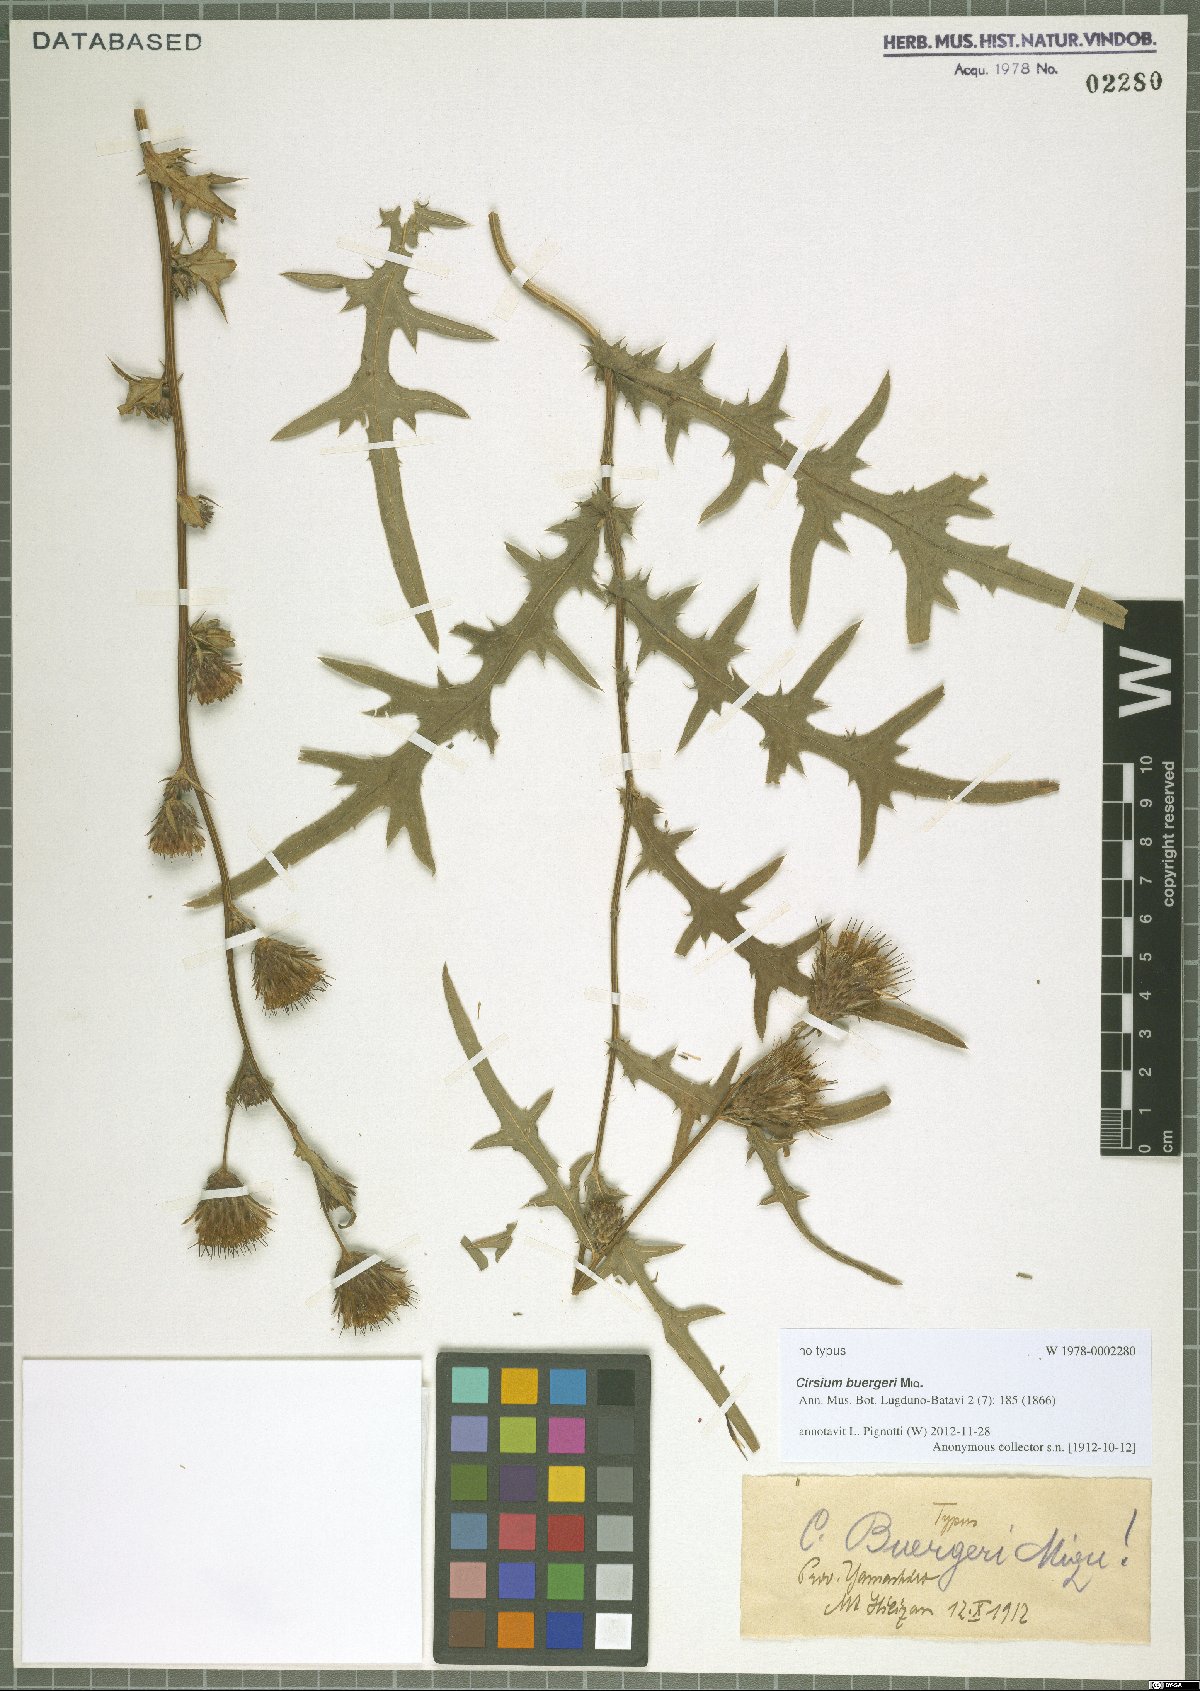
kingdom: Plantae
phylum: Tracheophyta
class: Magnoliopsida
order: Asterales
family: Asteraceae
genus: Cirsium
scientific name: Cirsium buergeri
